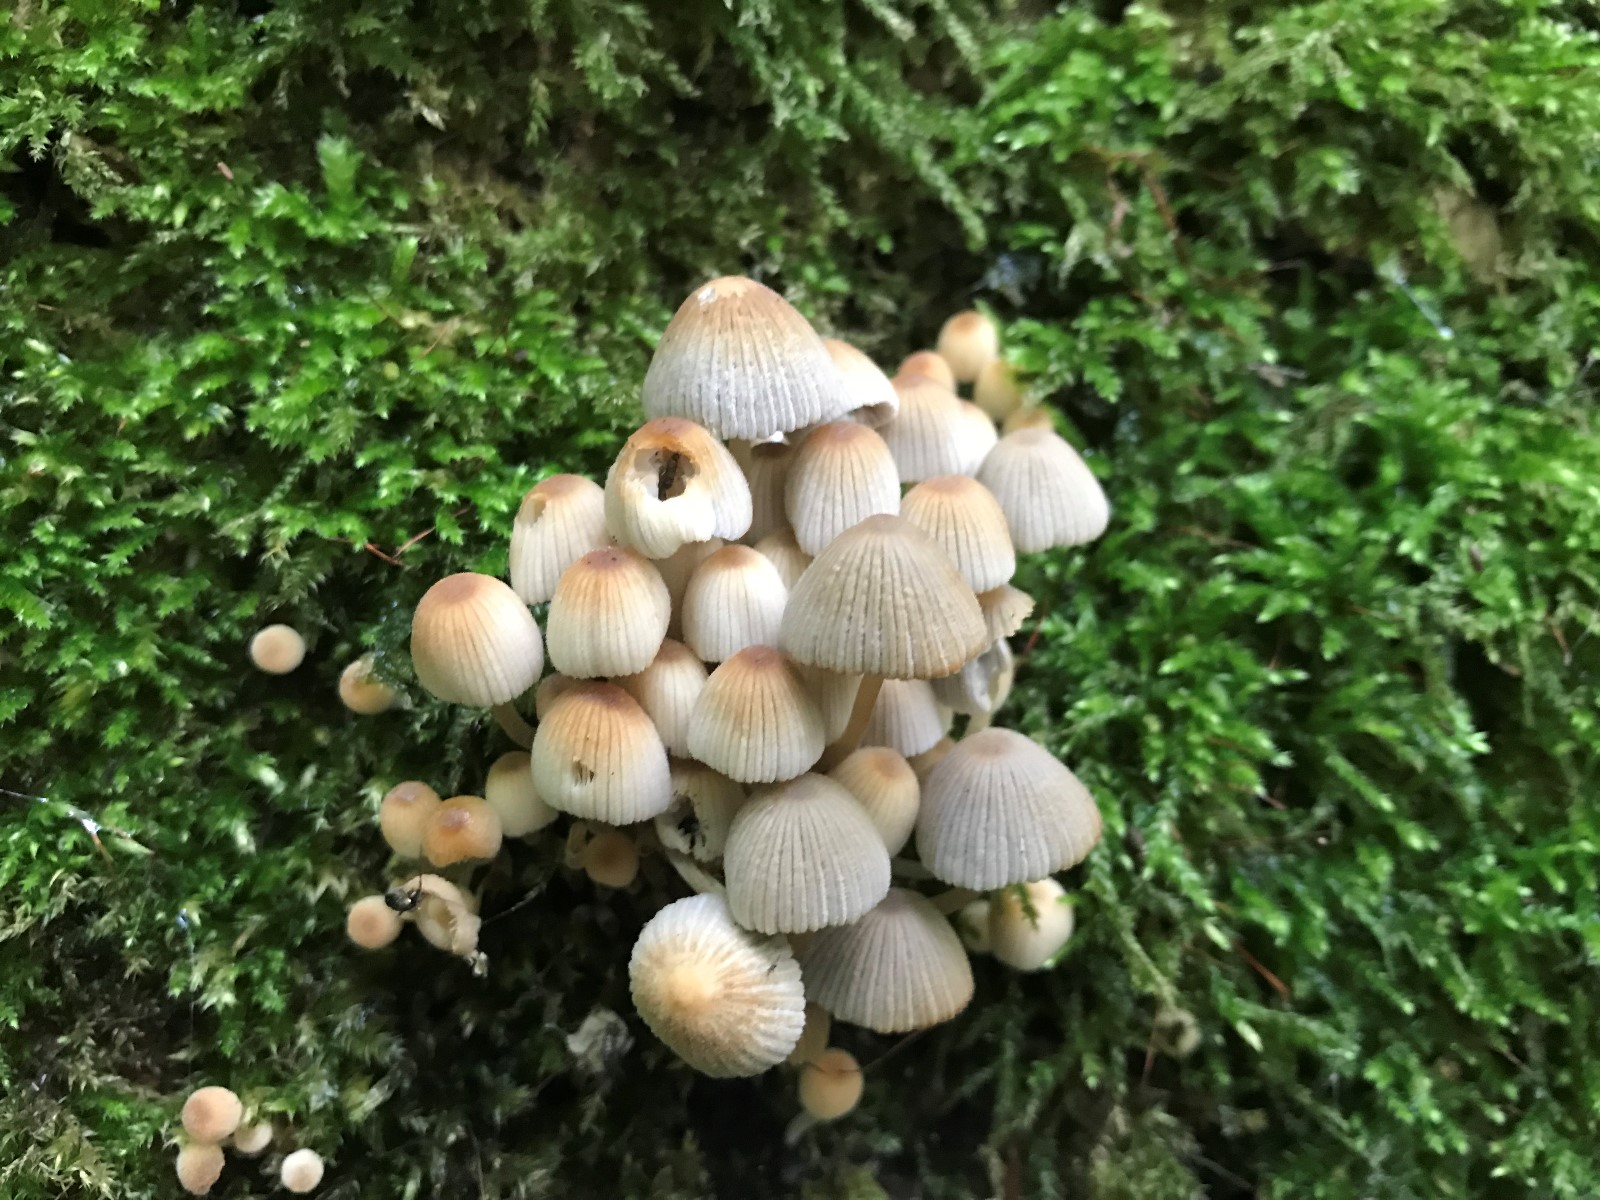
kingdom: Fungi
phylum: Basidiomycota
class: Agaricomycetes
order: Agaricales
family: Psathyrellaceae
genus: Coprinellus
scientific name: Coprinellus disseminatus
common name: bredsået blækhat
